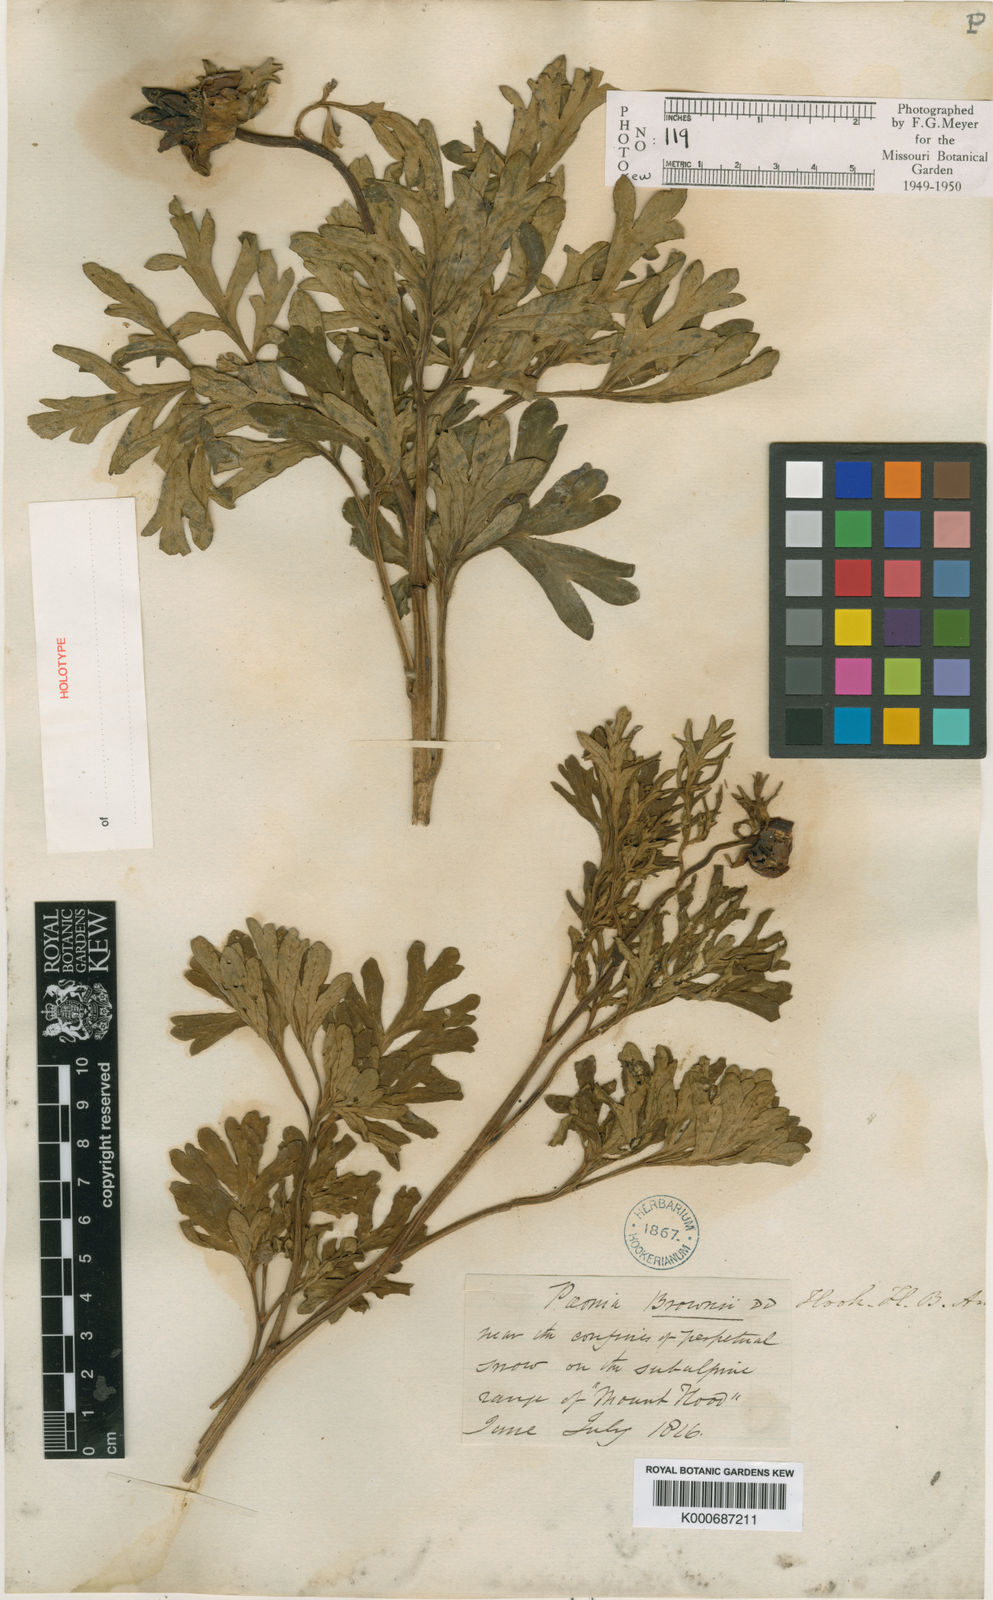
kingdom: Plantae
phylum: Tracheophyta
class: Magnoliopsida
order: Saxifragales
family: Paeoniaceae
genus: Paeonia
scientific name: Paeonia brownii
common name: Brown's peony
